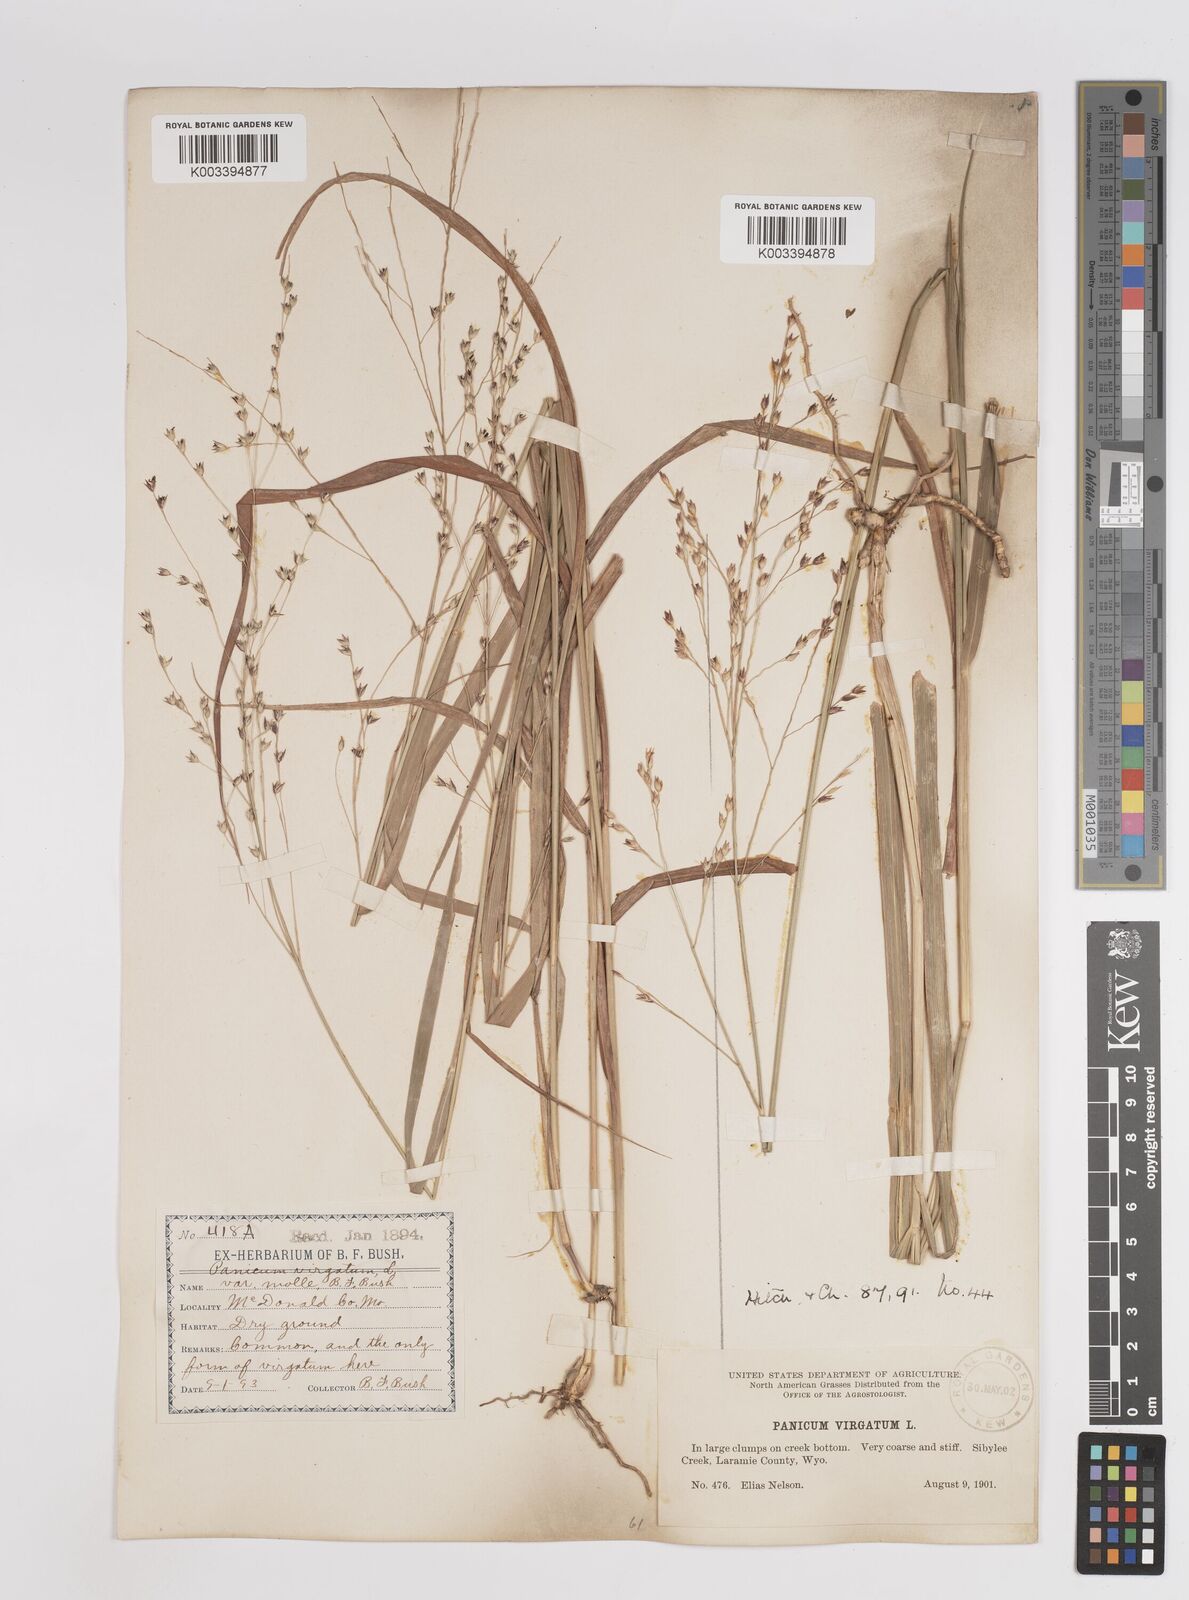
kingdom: Plantae
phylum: Tracheophyta
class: Liliopsida
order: Poales
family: Poaceae
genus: Panicum
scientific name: Panicum virgatum
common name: Switchgrass
